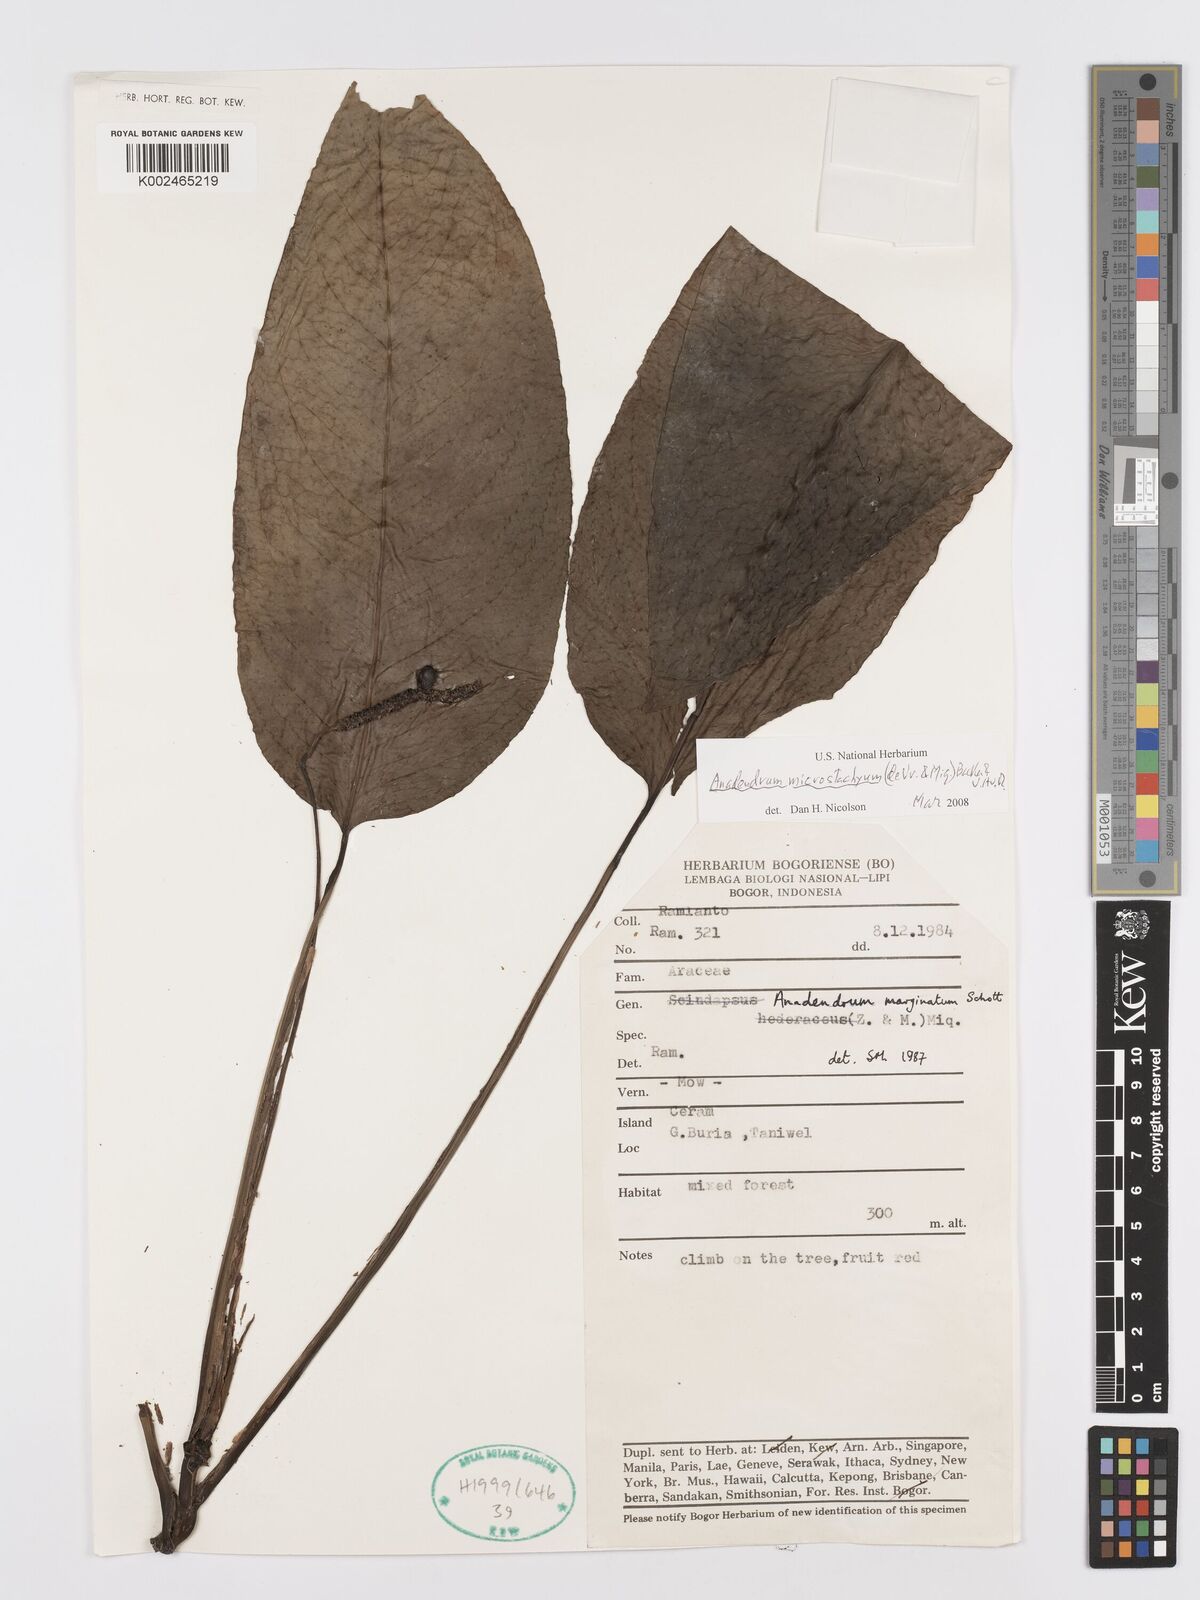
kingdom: Plantae
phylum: Tracheophyta
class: Liliopsida
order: Alismatales
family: Araceae
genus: Anadendrum
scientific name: Anadendrum microstachyum
